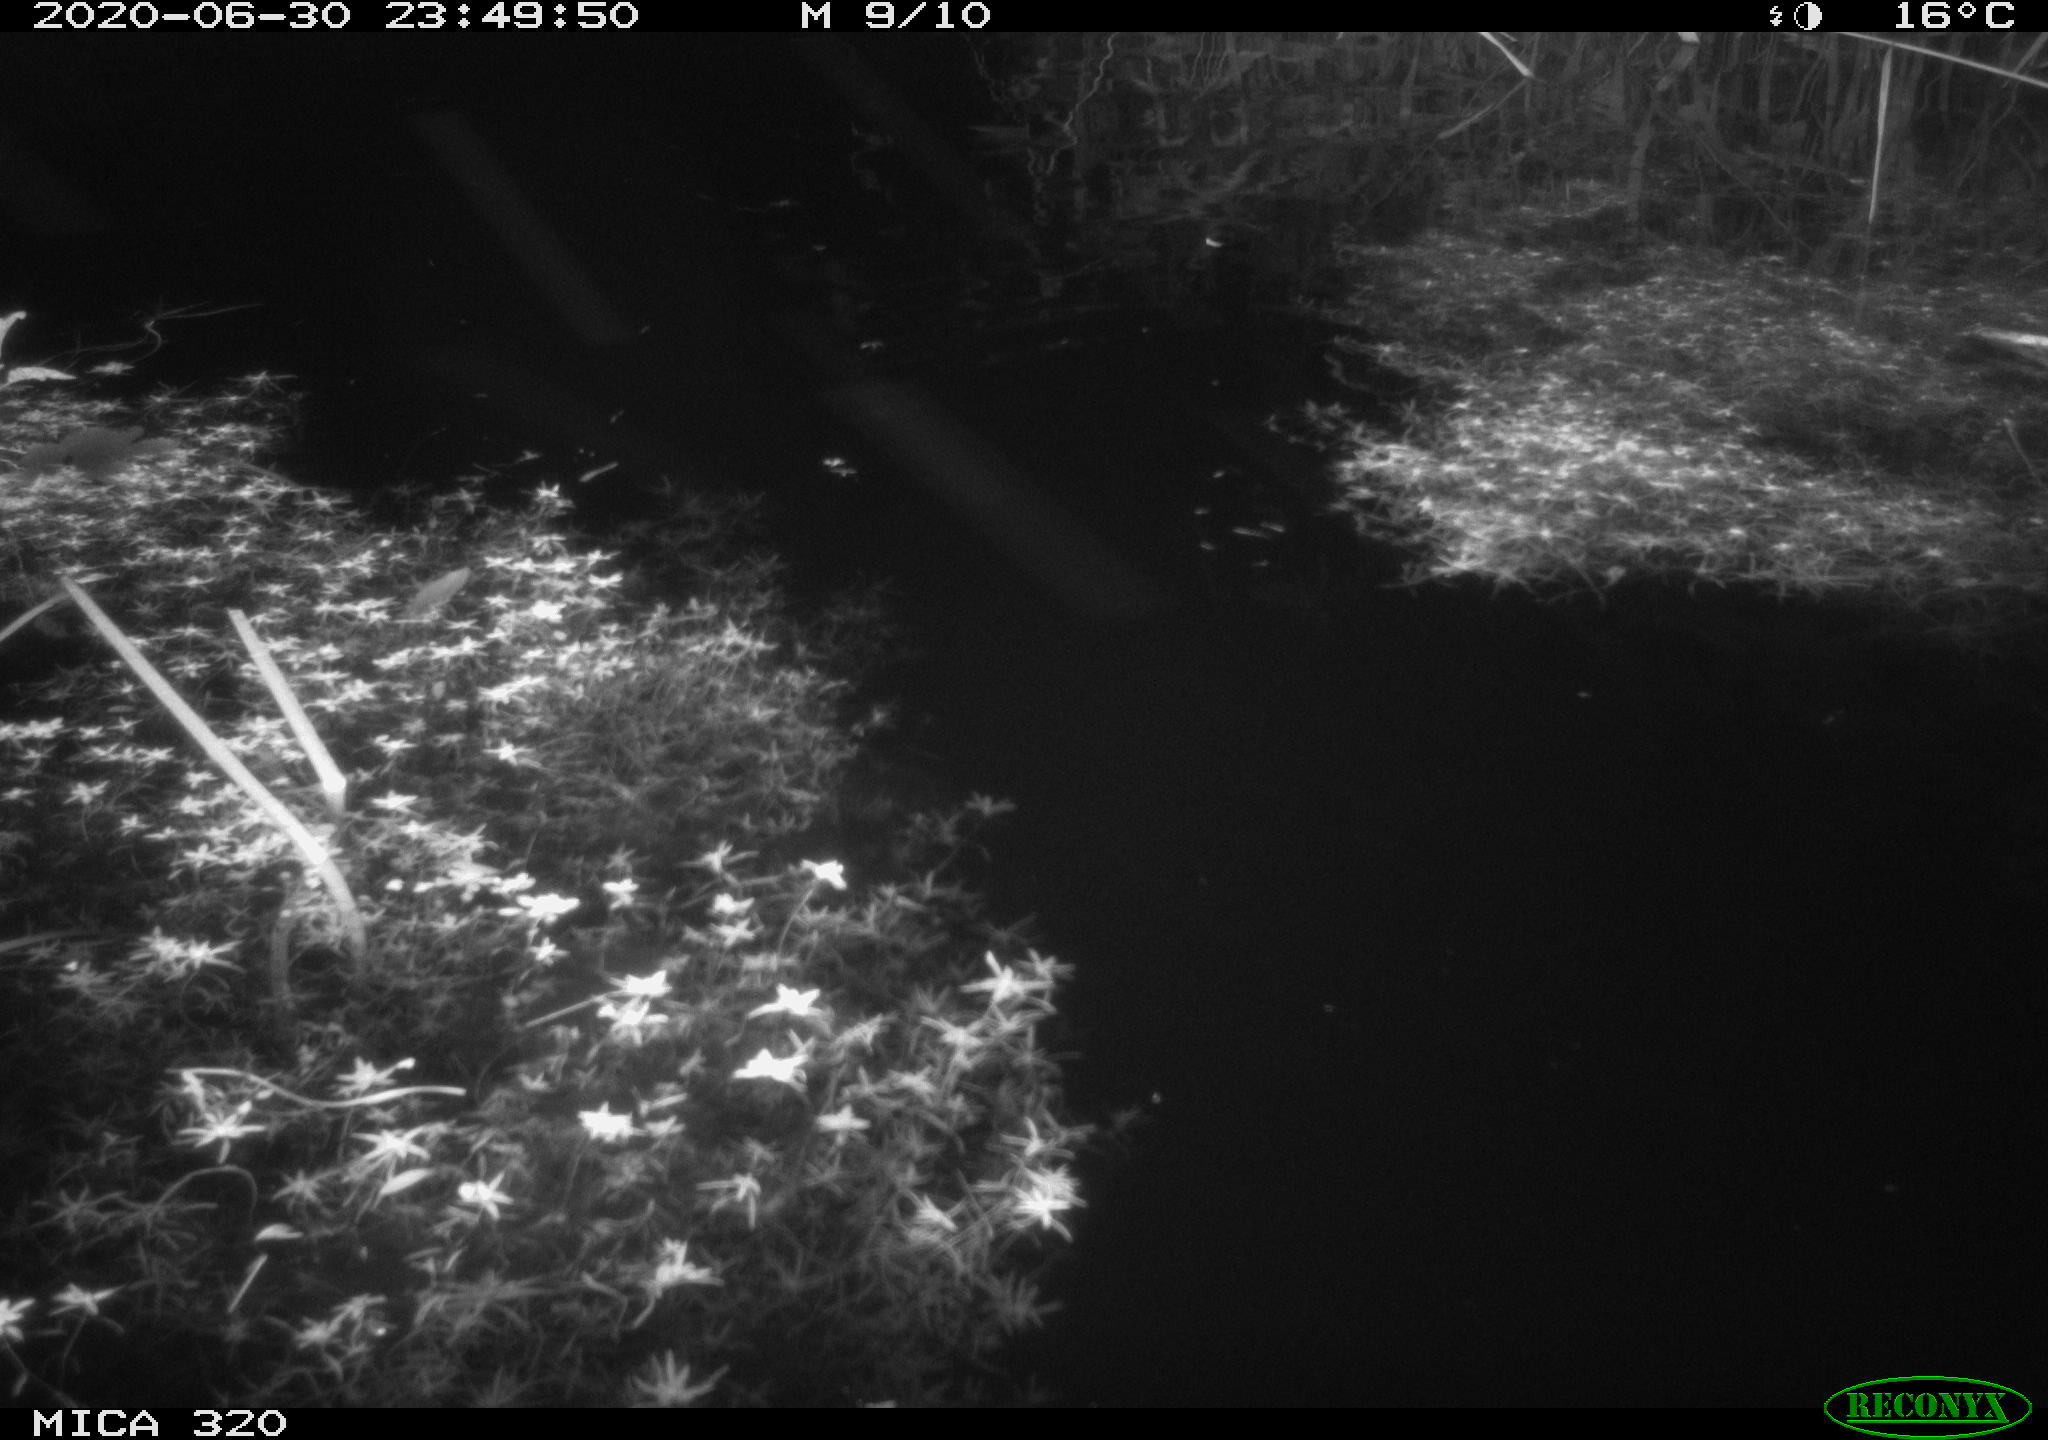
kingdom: Animalia
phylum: Chordata
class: Aves
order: Anseriformes
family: Anatidae
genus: Anas
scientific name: Anas platyrhynchos
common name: Mallard
